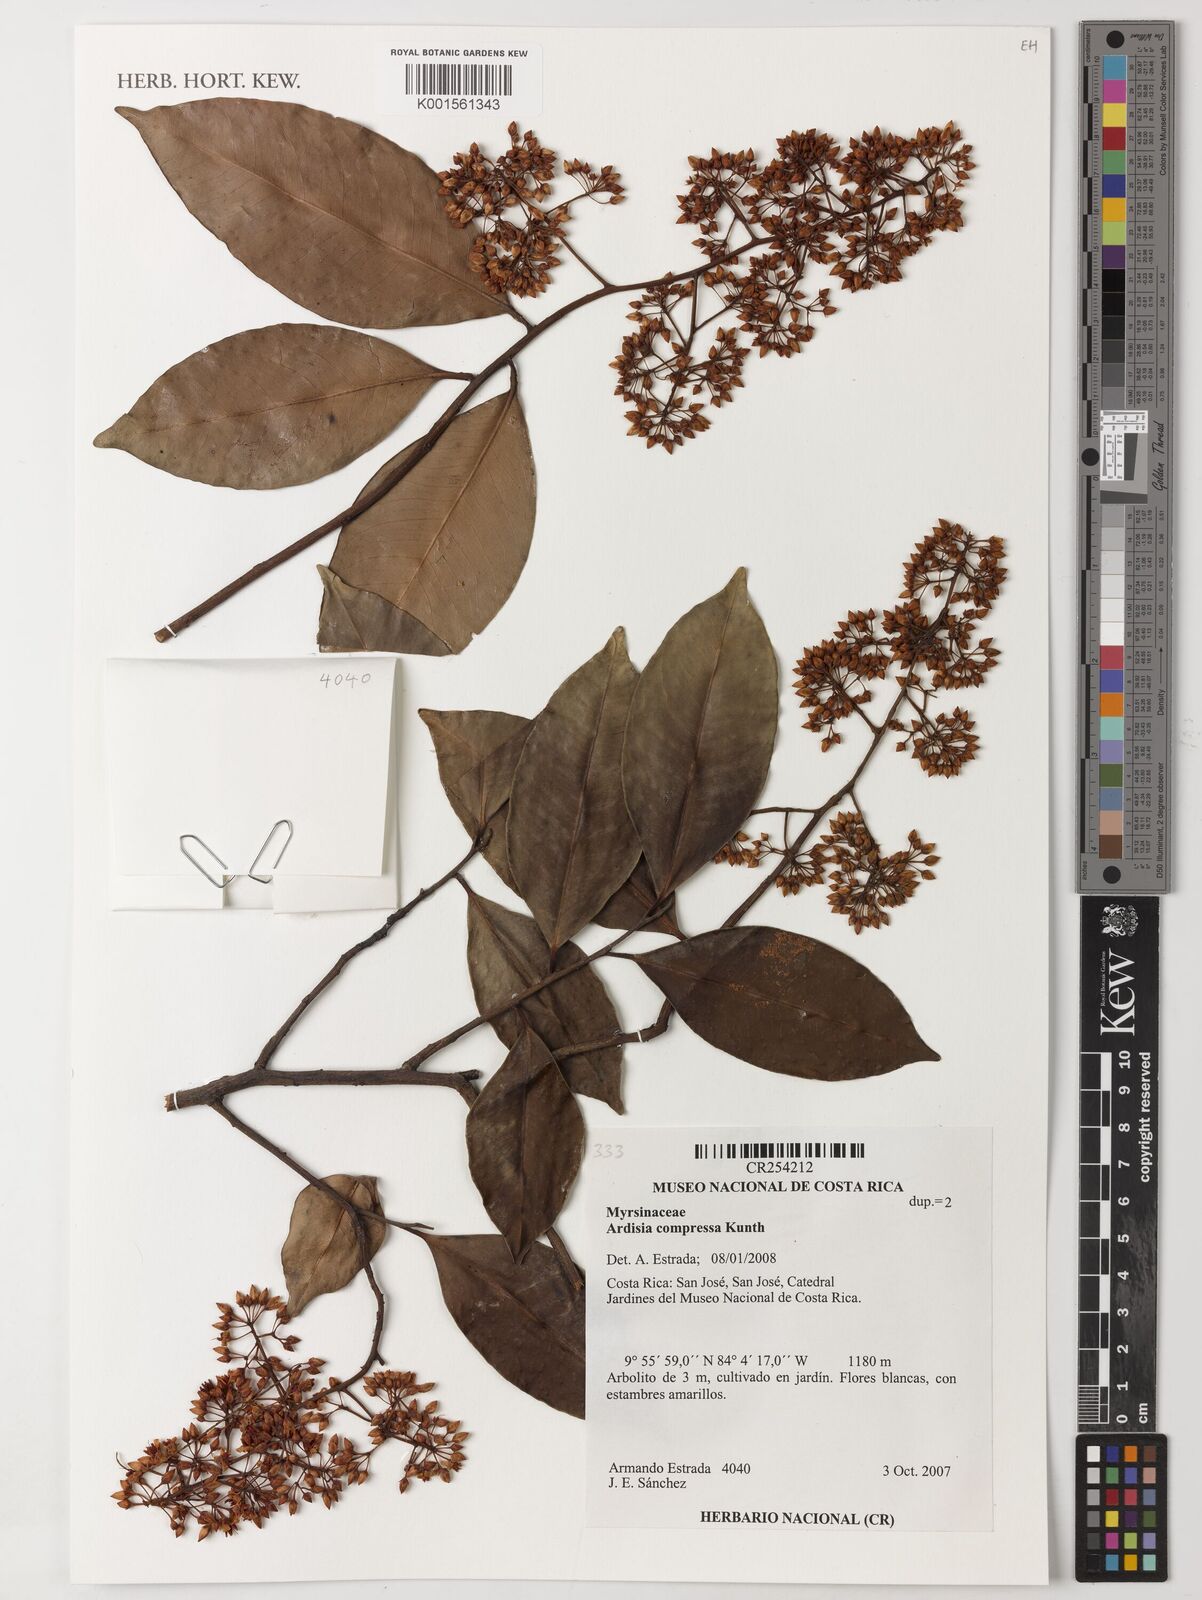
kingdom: Plantae
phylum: Tracheophyta
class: Magnoliopsida
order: Ericales
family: Primulaceae
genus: Ardisia
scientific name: Ardisia compressa
